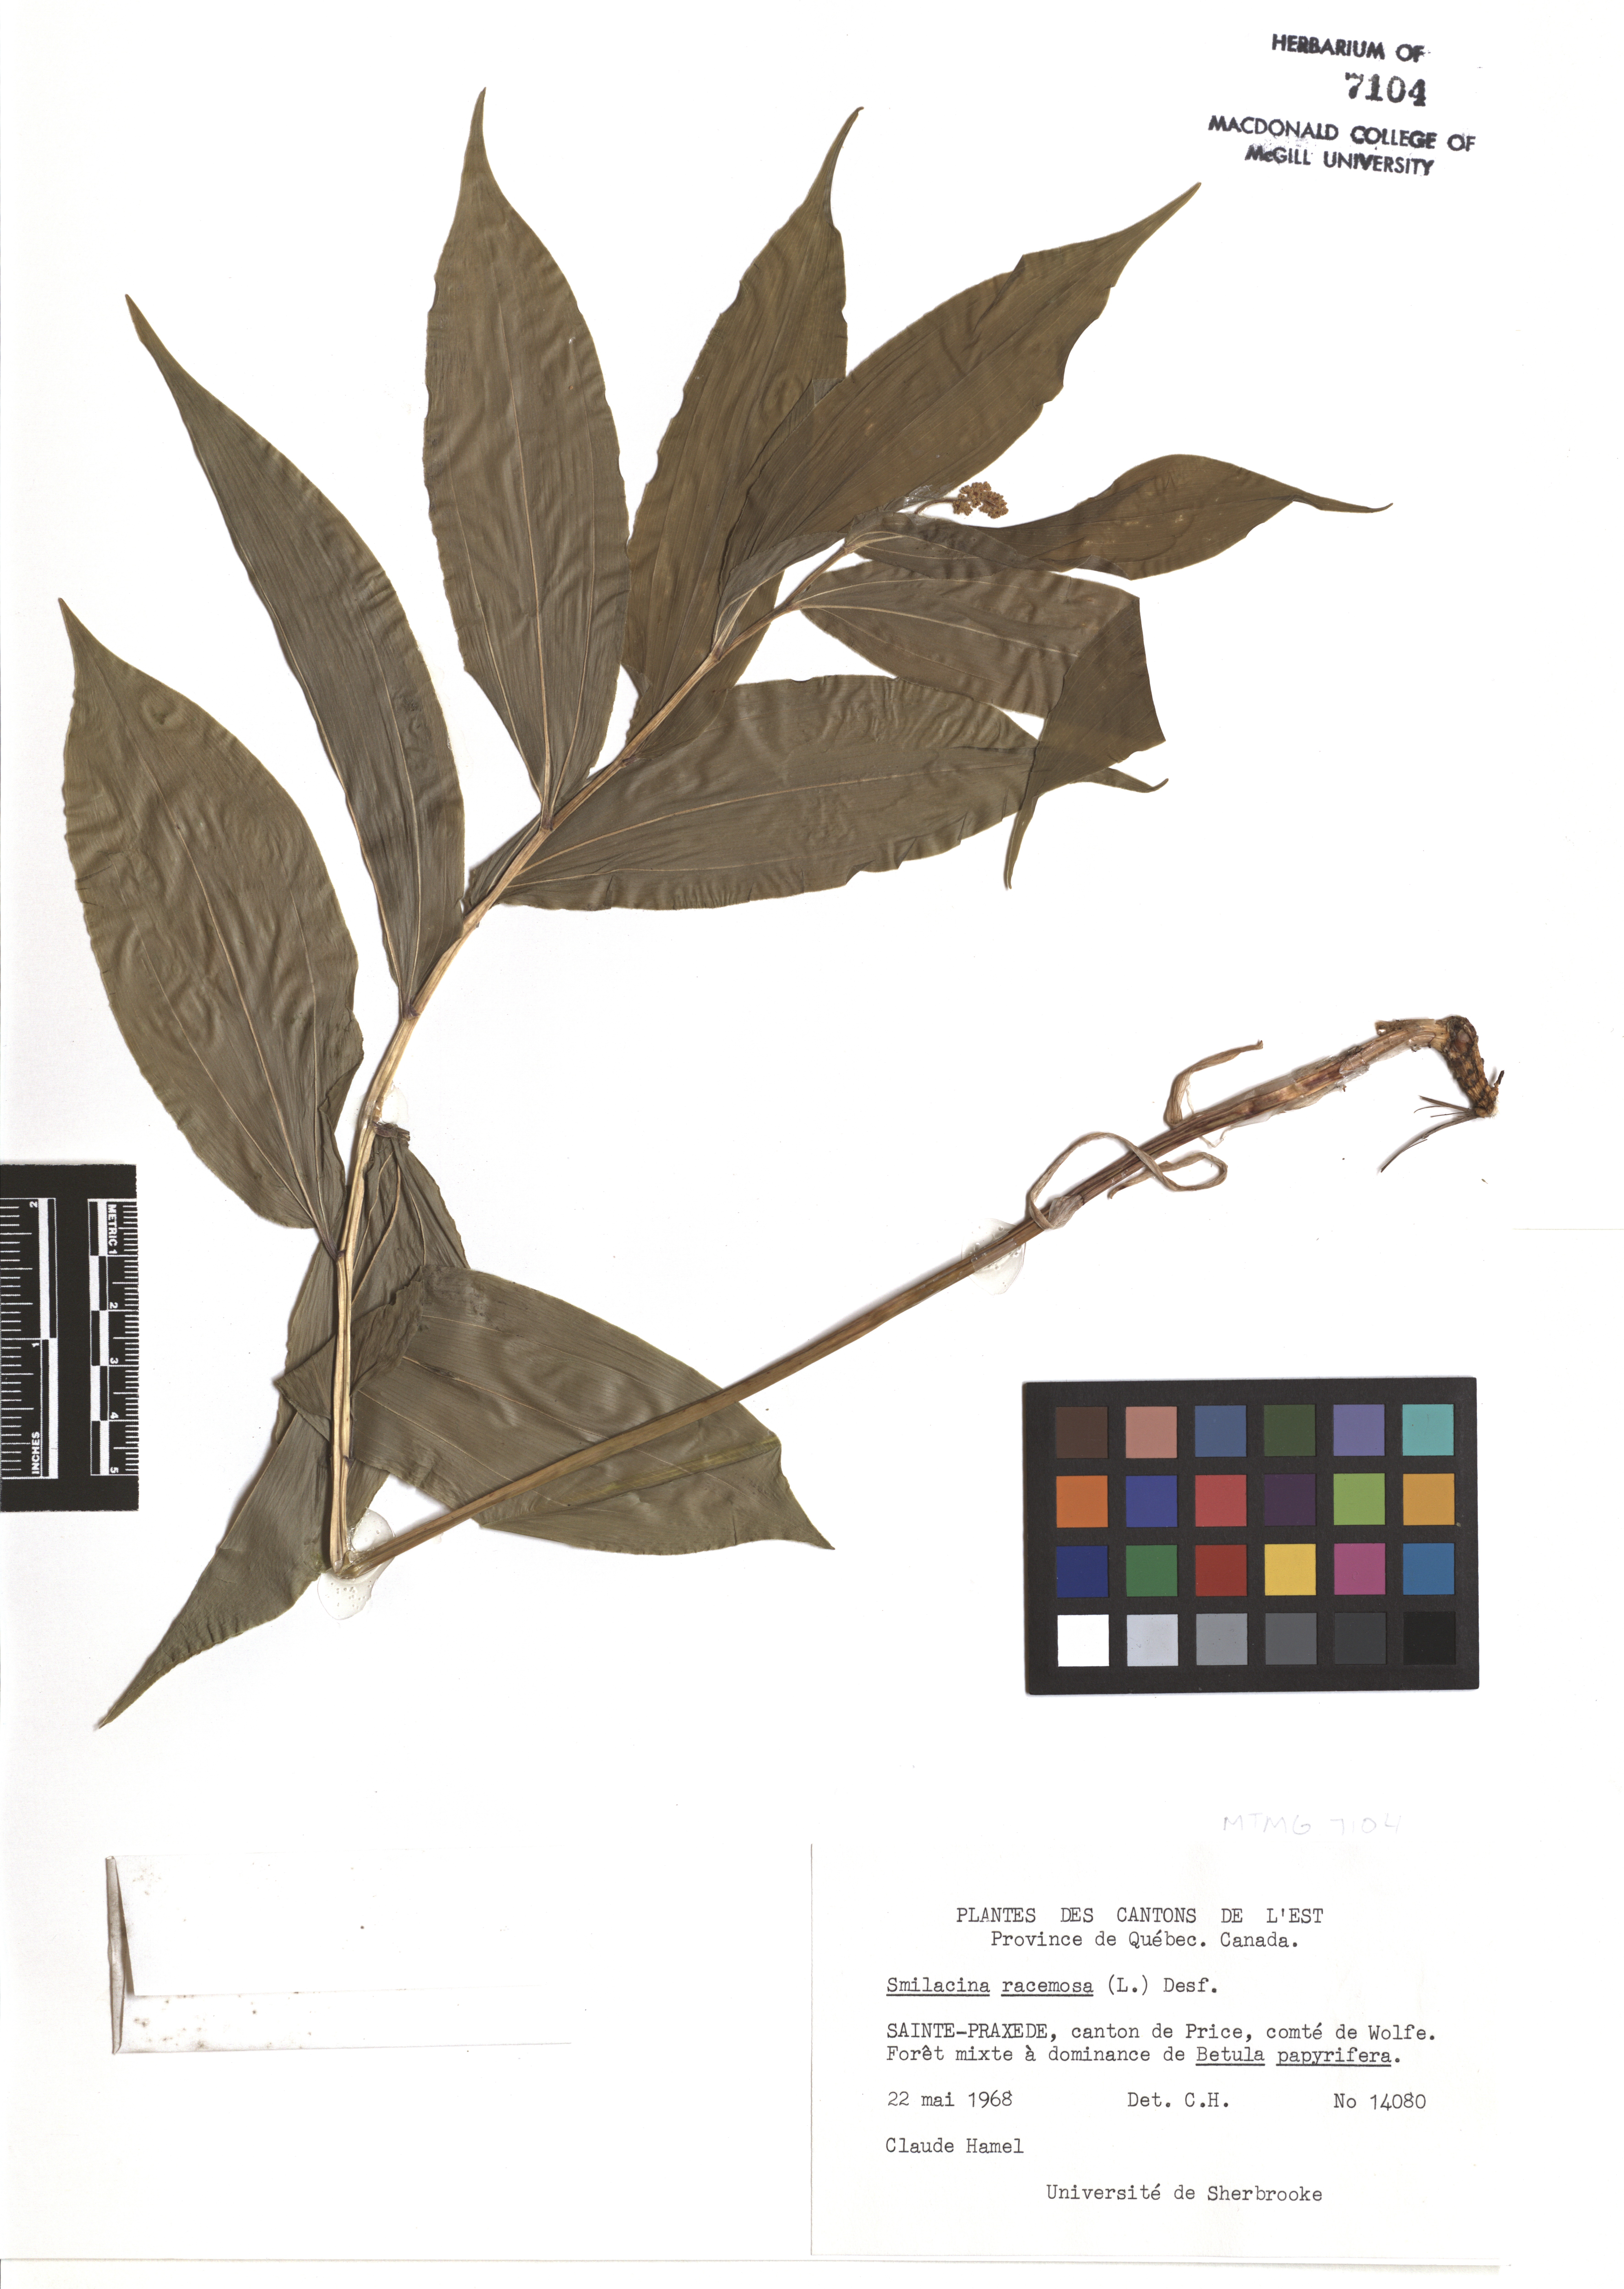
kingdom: Plantae
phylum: Tracheophyta
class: Liliopsida
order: Asparagales
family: Asparagaceae
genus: Maianthemum
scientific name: Maianthemum racemosum
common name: False spikenard
